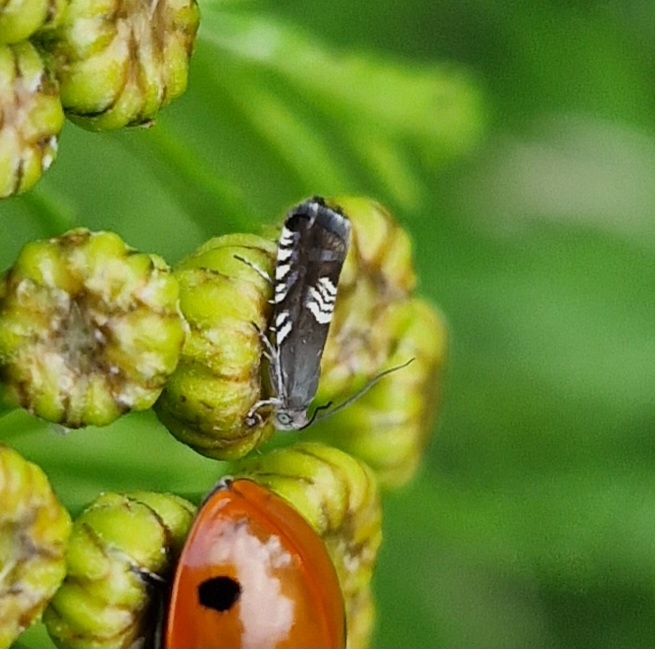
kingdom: Animalia
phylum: Arthropoda
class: Insecta
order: Lepidoptera
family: Tortricidae
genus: Grapholita
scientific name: Grapholita compositella
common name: Kløvervikler
